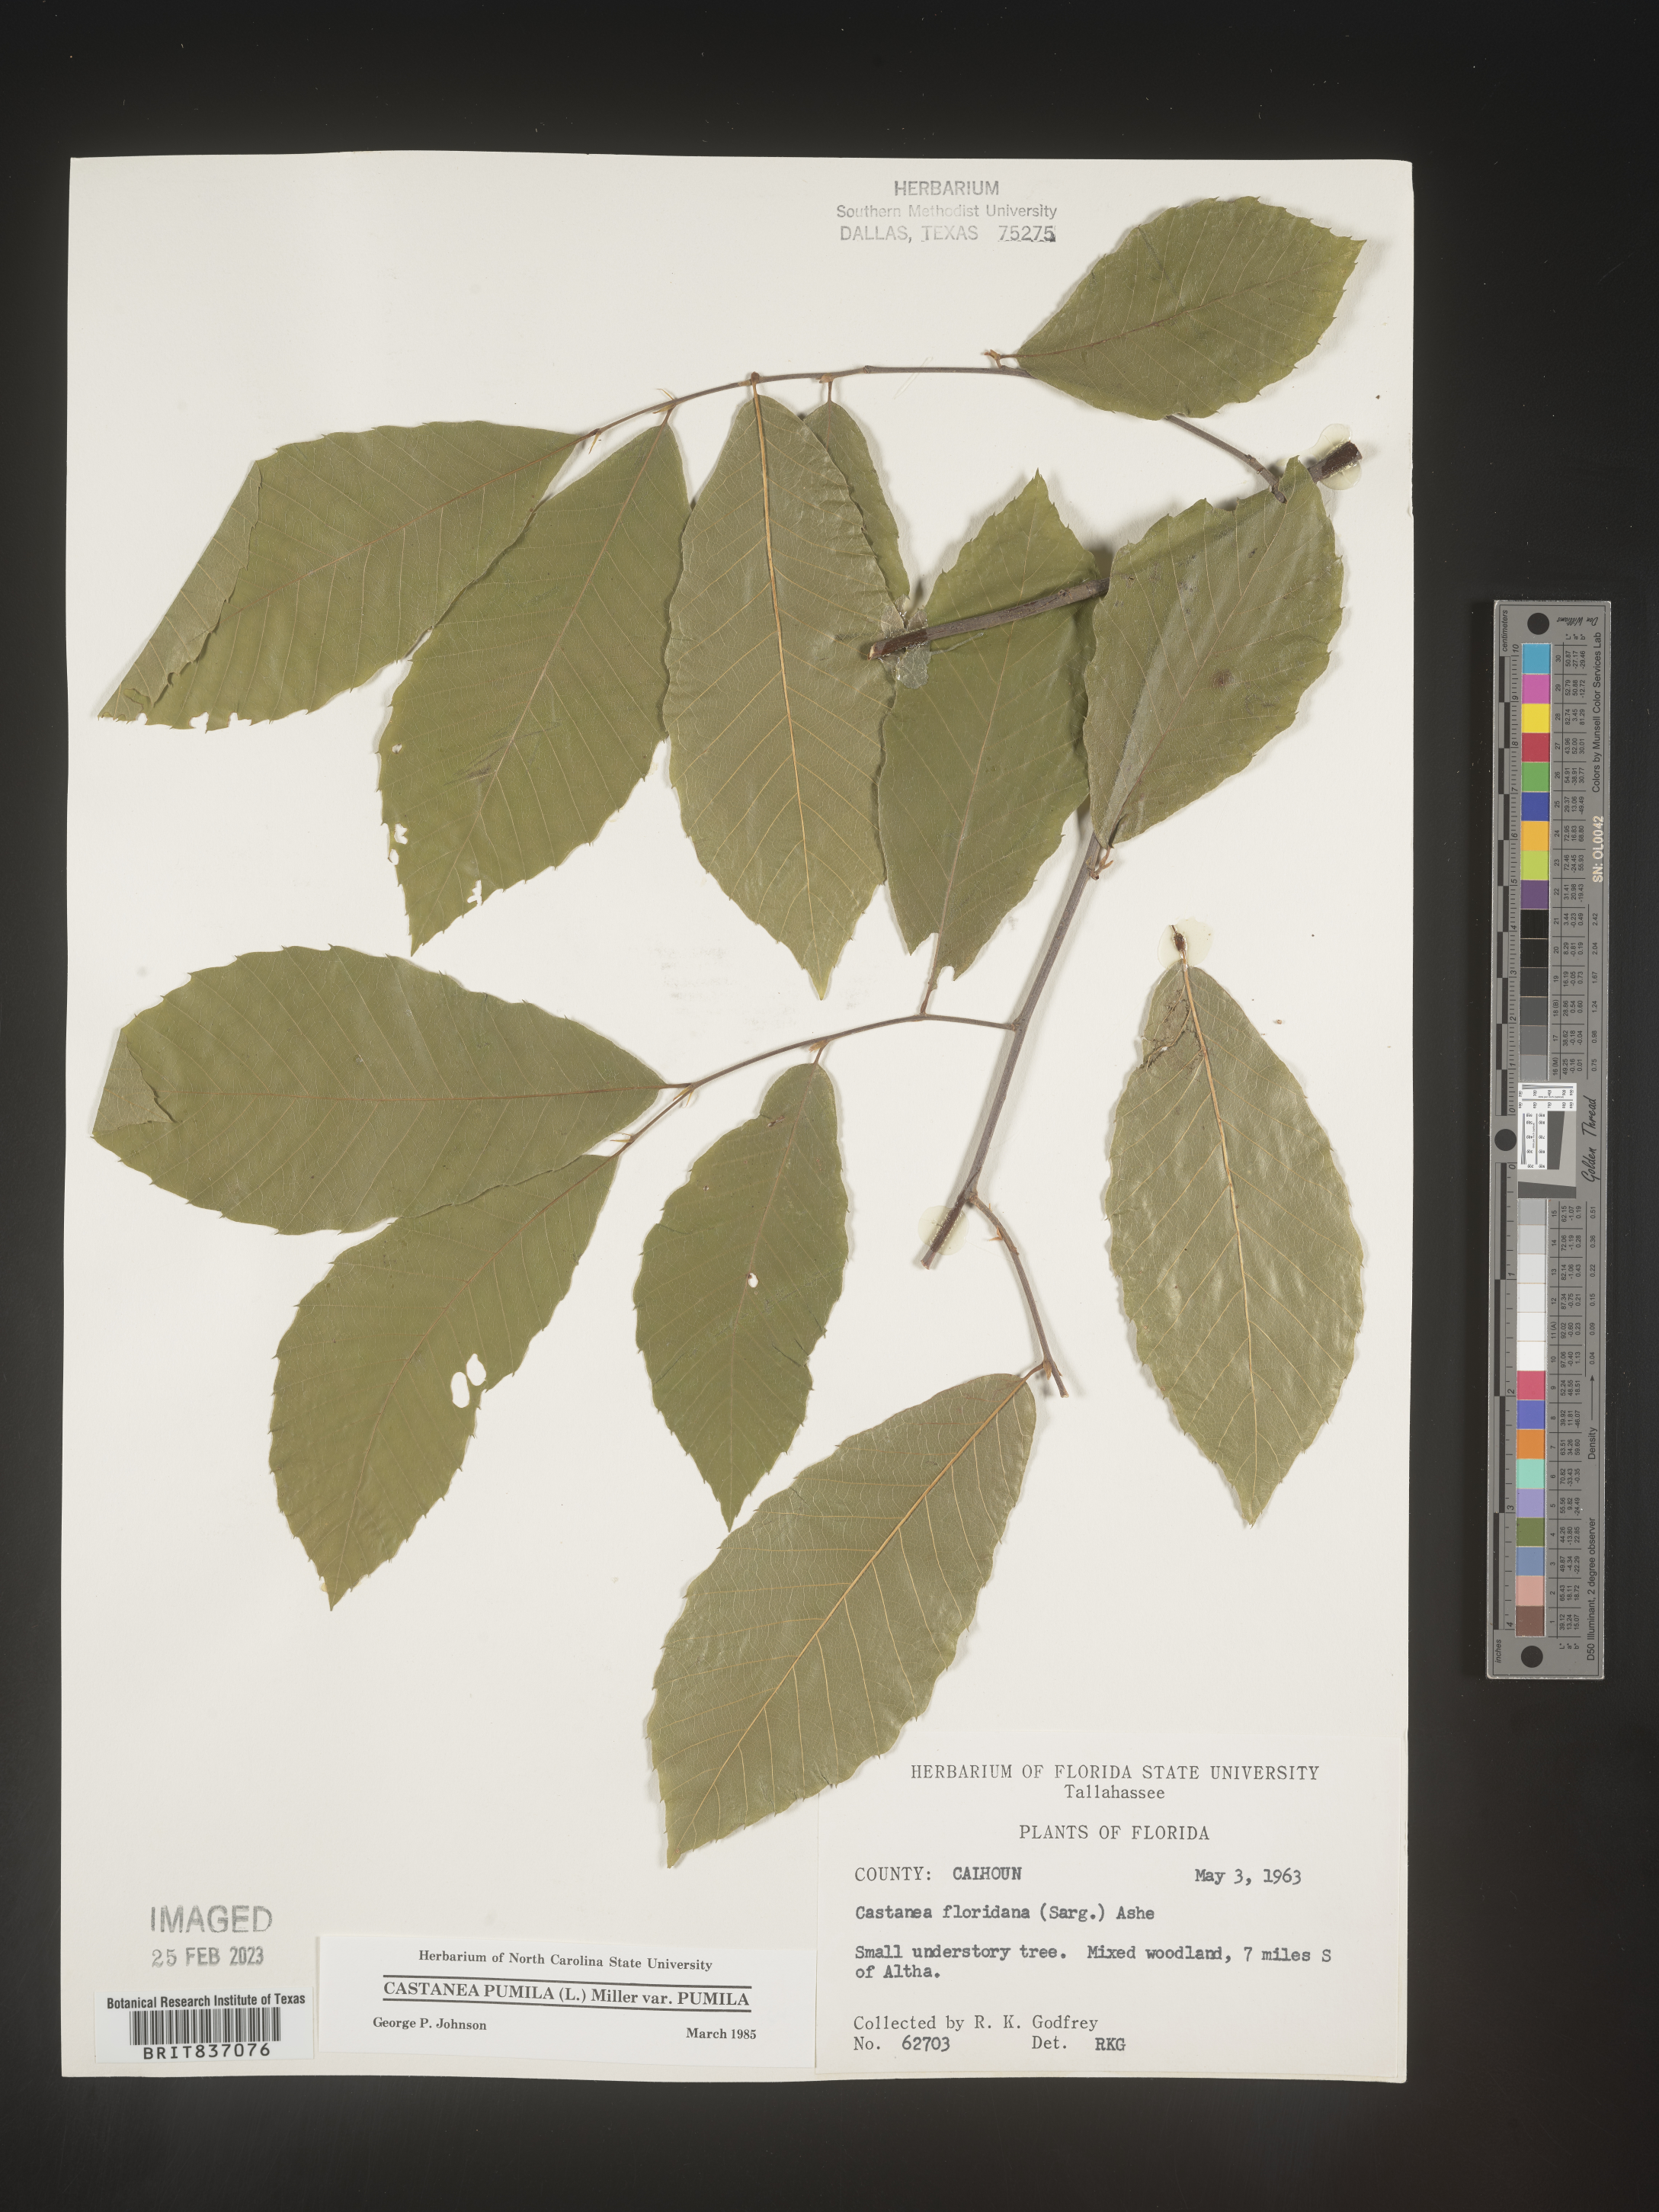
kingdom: Plantae
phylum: Tracheophyta
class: Magnoliopsida
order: Fagales
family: Fagaceae
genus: Castanea
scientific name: Castanea pumila
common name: Chinkapin
